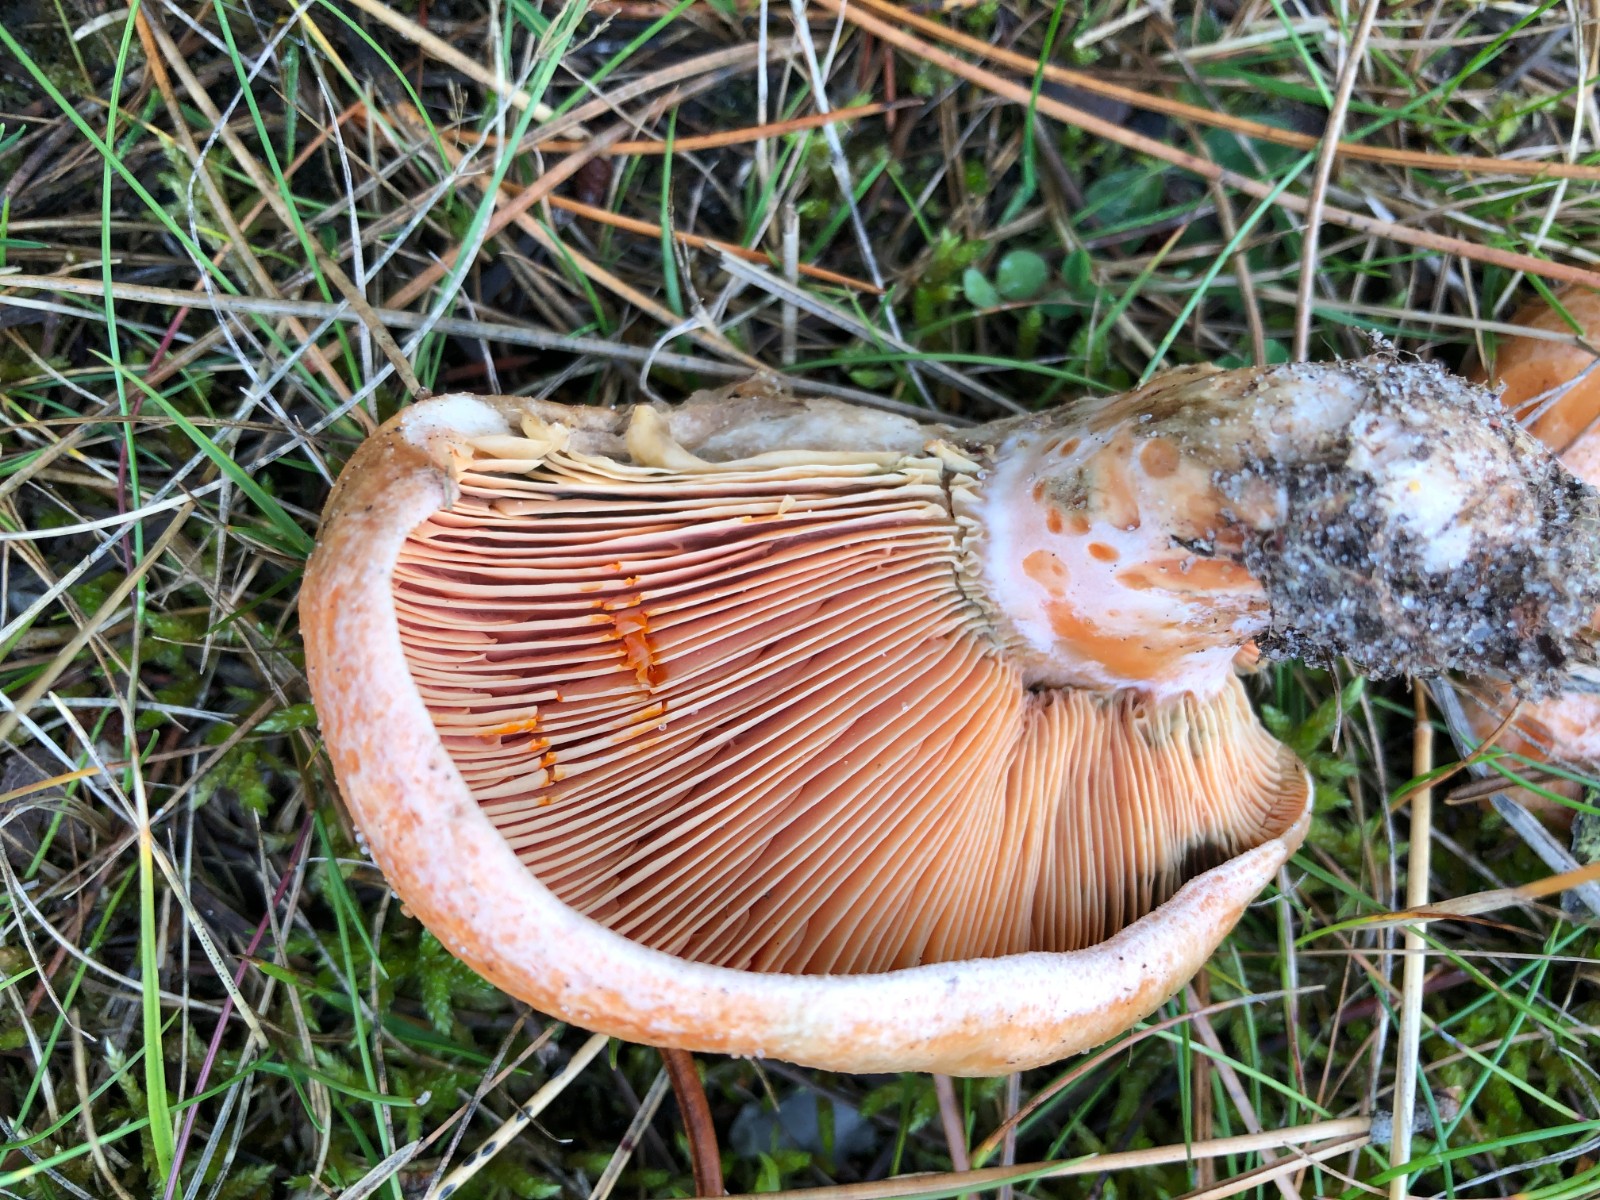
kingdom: Fungi
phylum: Basidiomycota
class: Agaricomycetes
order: Russulales
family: Russulaceae
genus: Lactarius
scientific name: Lactarius deliciosus
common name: velsmagende mælkehat
